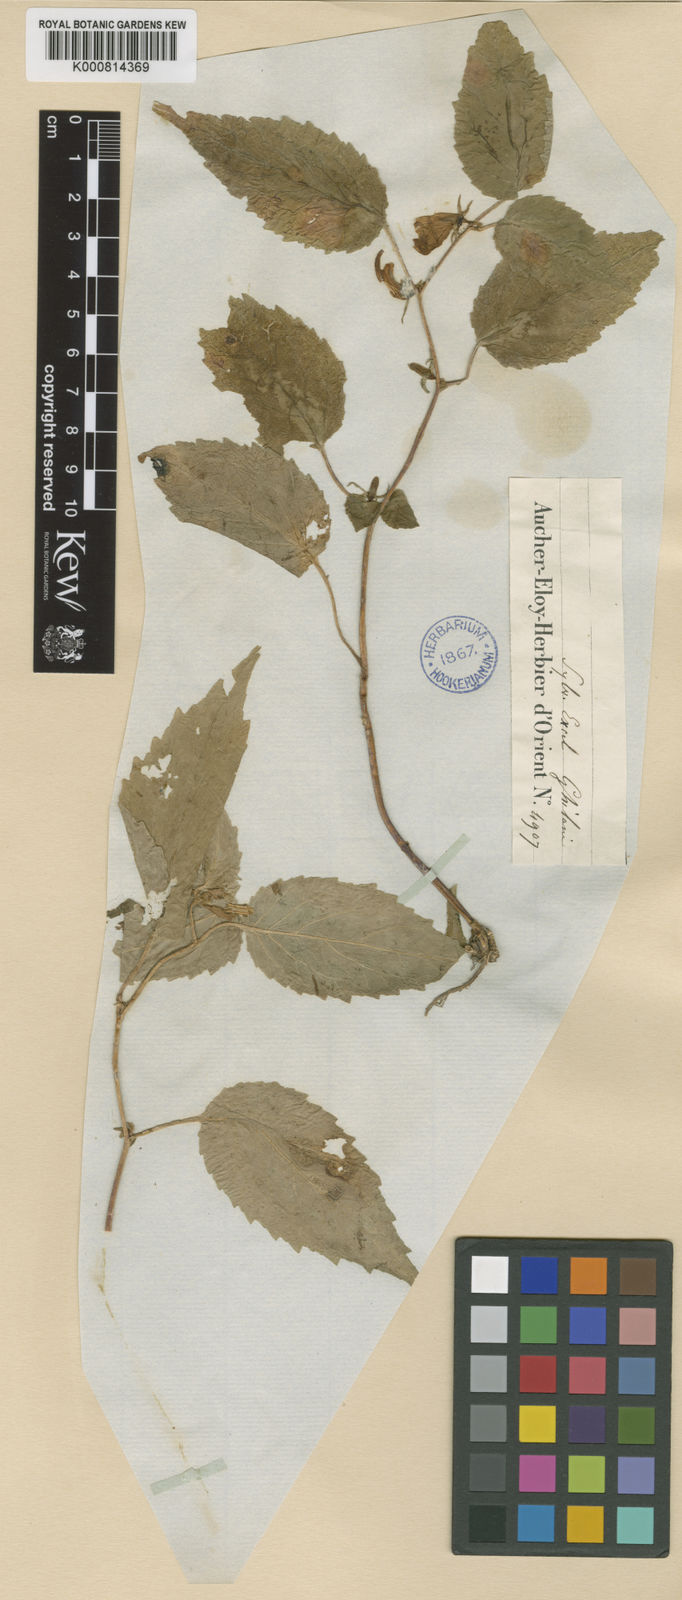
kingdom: Plantae
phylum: Tracheophyta
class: Magnoliopsida
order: Asterales
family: Campanulaceae
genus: Campanula
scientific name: Campanula odontosepala
